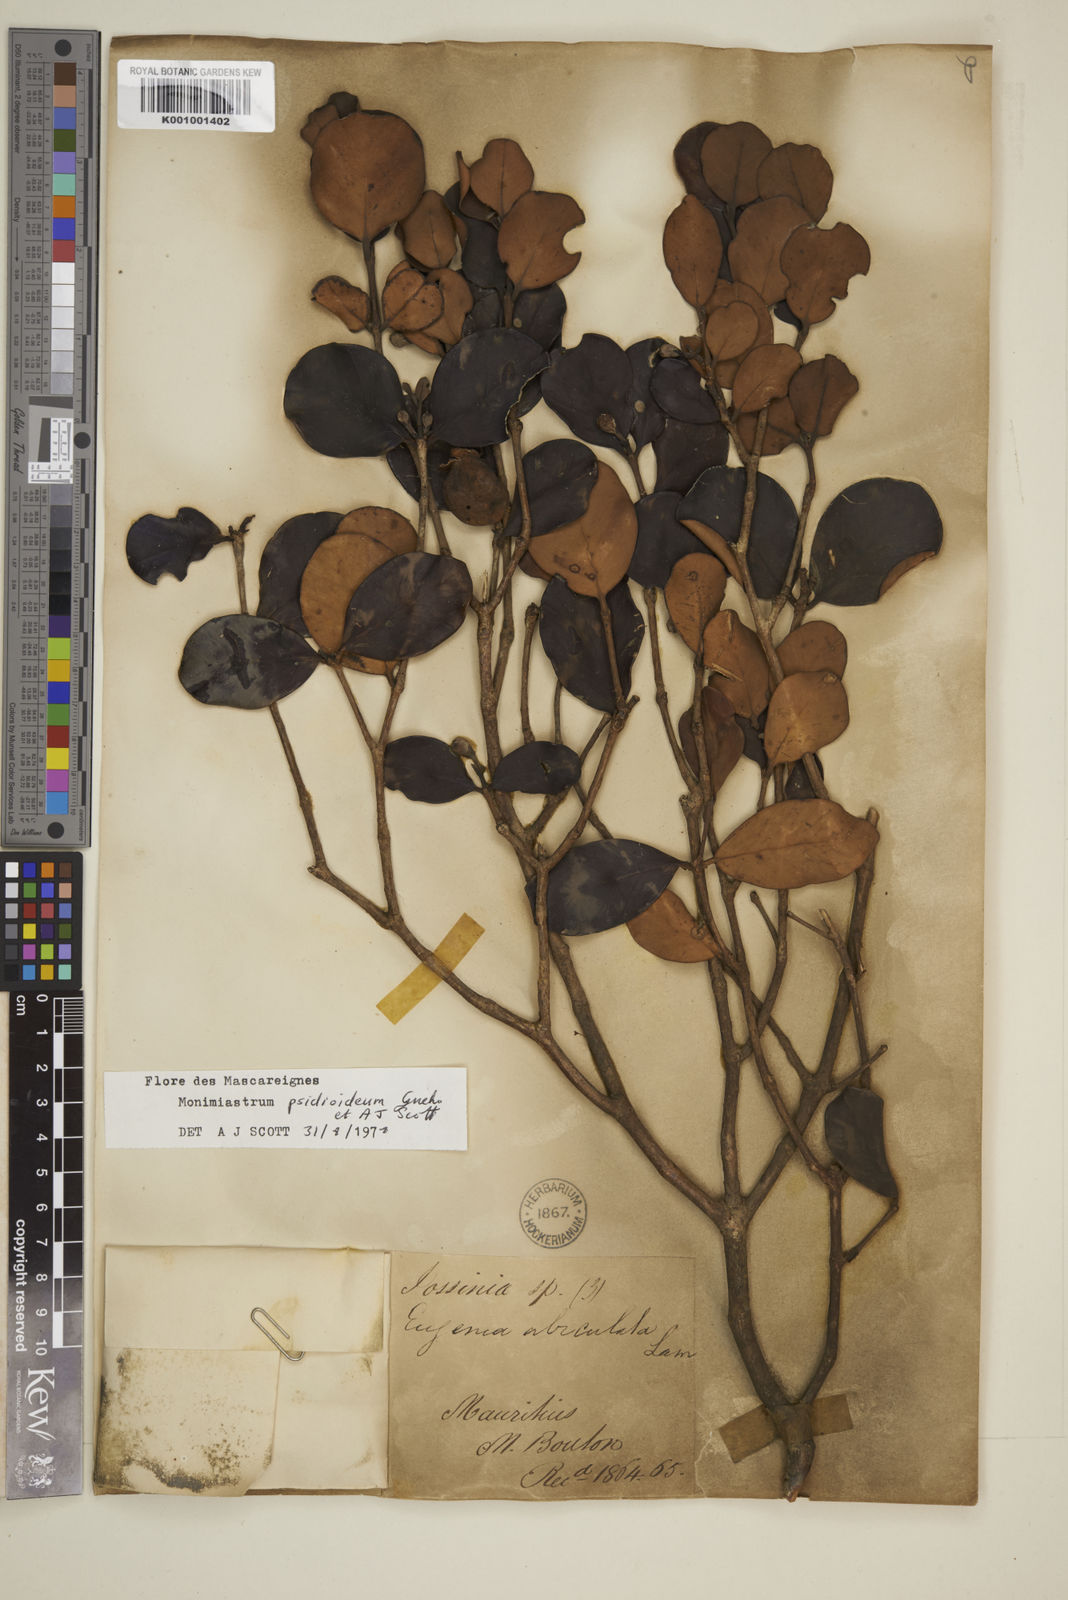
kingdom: Plantae
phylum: Tracheophyta
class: Magnoliopsida
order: Myrtales
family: Myrtaceae
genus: Eugenia
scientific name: Eugenia psidioidea
